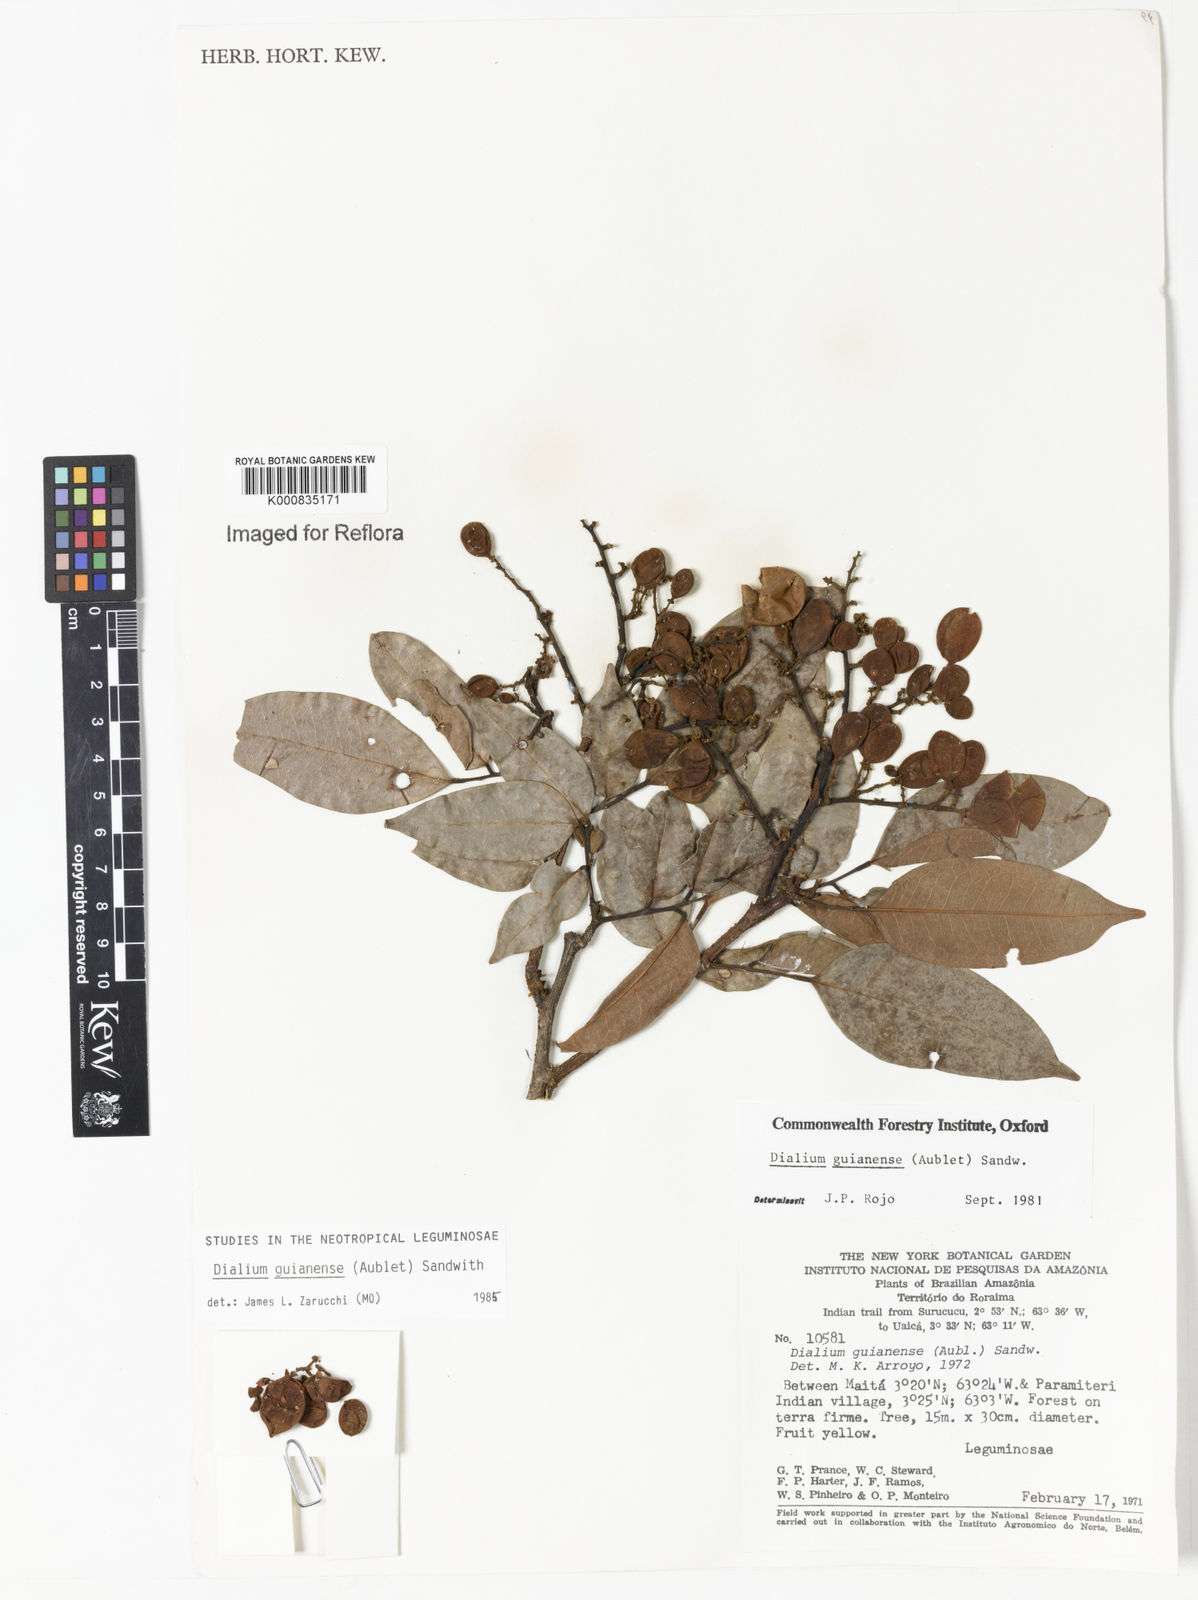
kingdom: Plantae
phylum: Tracheophyta
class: Magnoliopsida
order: Fabales
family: Fabaceae
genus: Dialium
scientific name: Dialium guianense
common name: Ironwood
